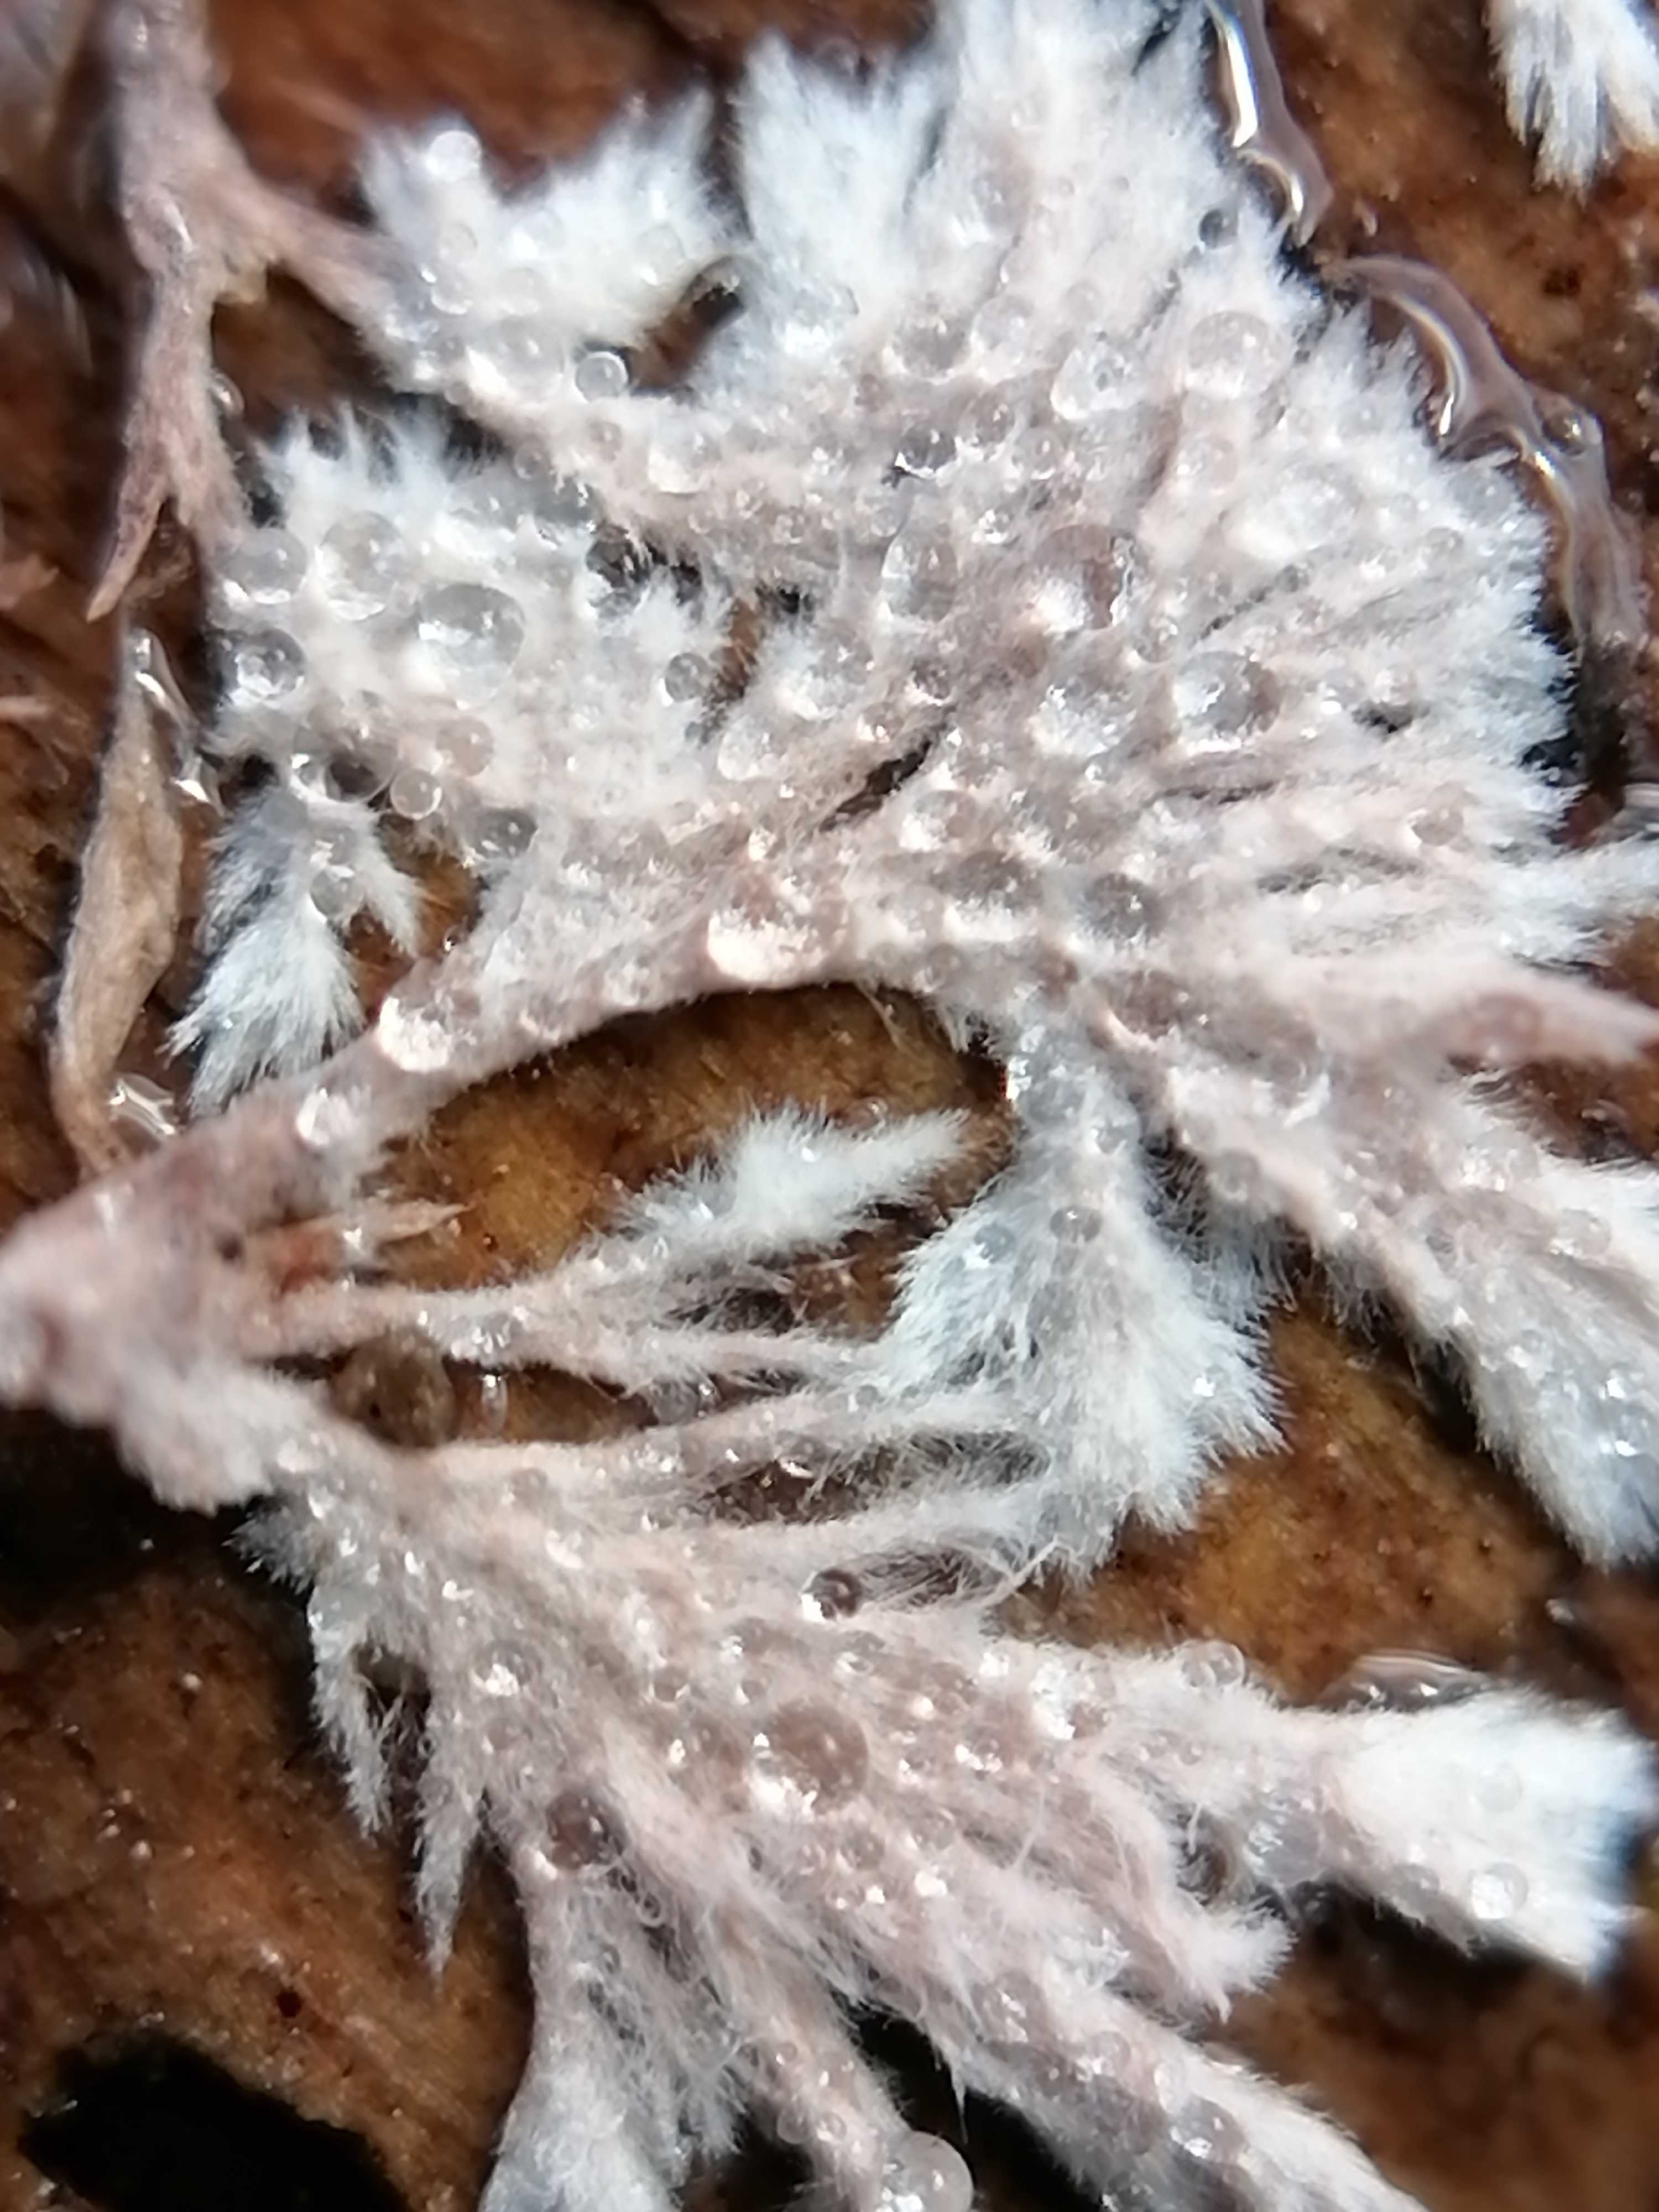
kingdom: Fungi
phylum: Basidiomycota
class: Agaricomycetes
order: Polyporales
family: Steccherinaceae
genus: Steccherinum
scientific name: Steccherinum fimbriatum
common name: trådet skønpig
